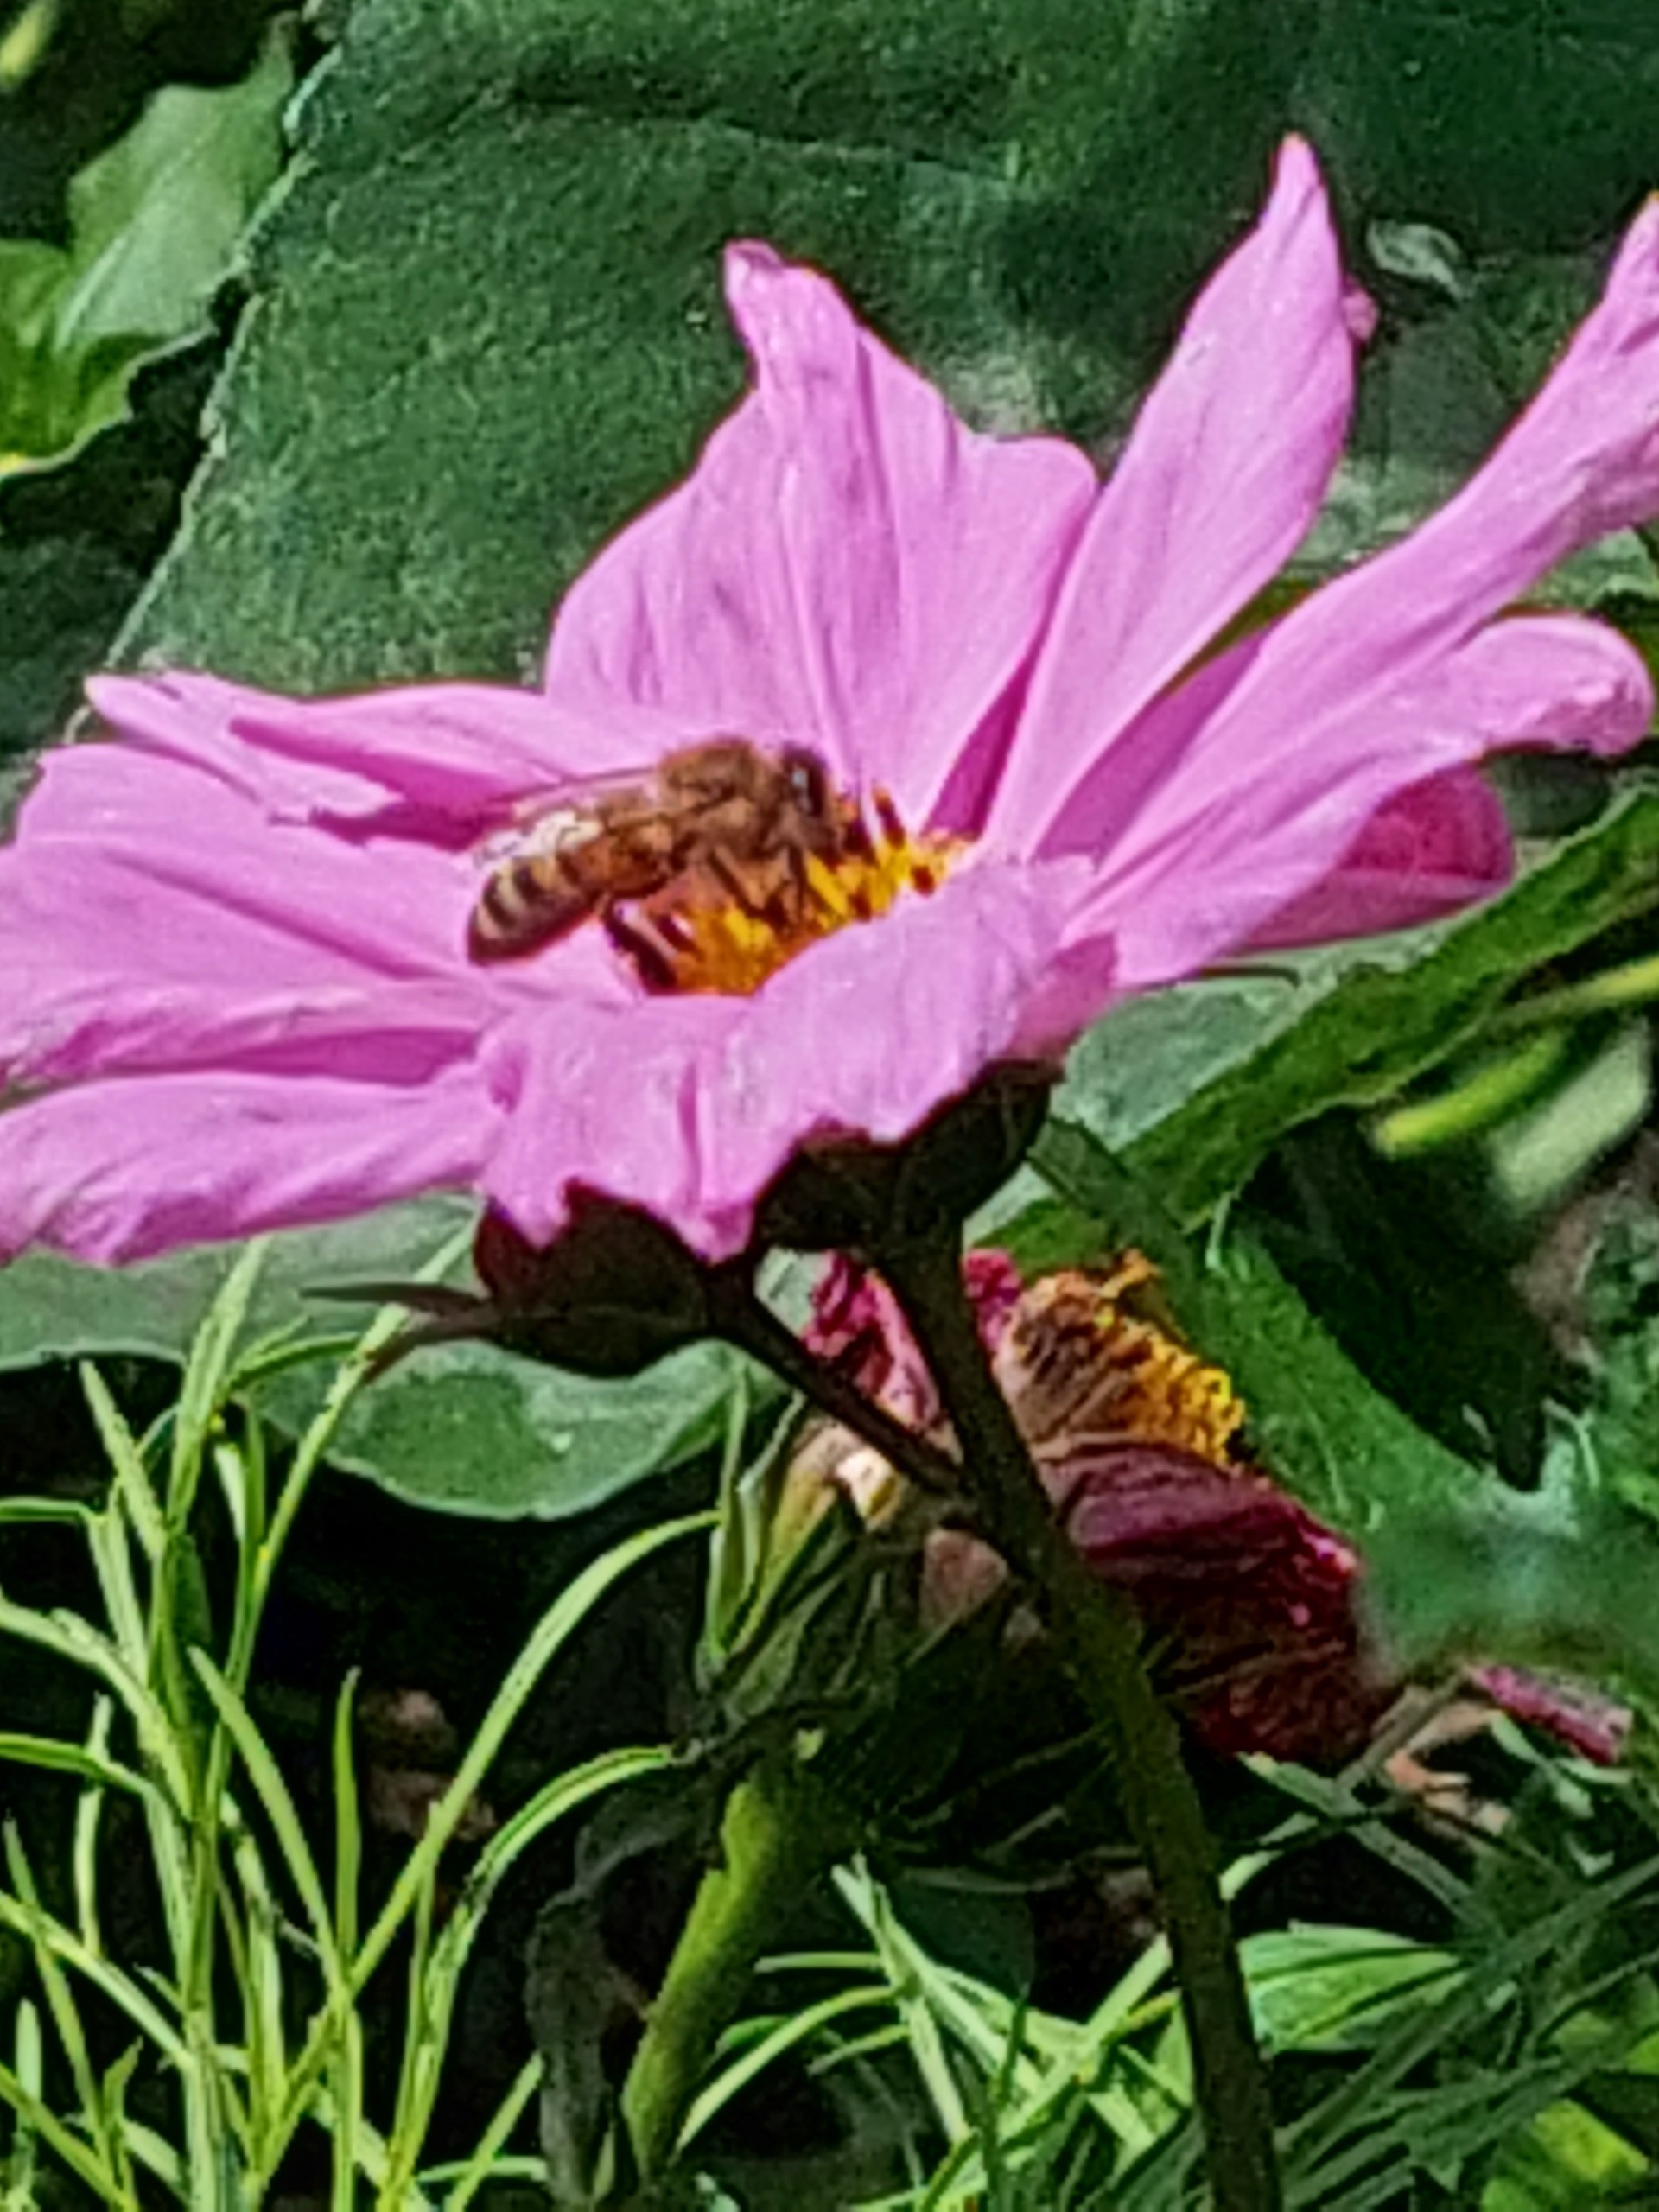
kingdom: Animalia
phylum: Arthropoda
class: Insecta
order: Hymenoptera
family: Apidae
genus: Apis
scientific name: Apis mellifera
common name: Honningbi
